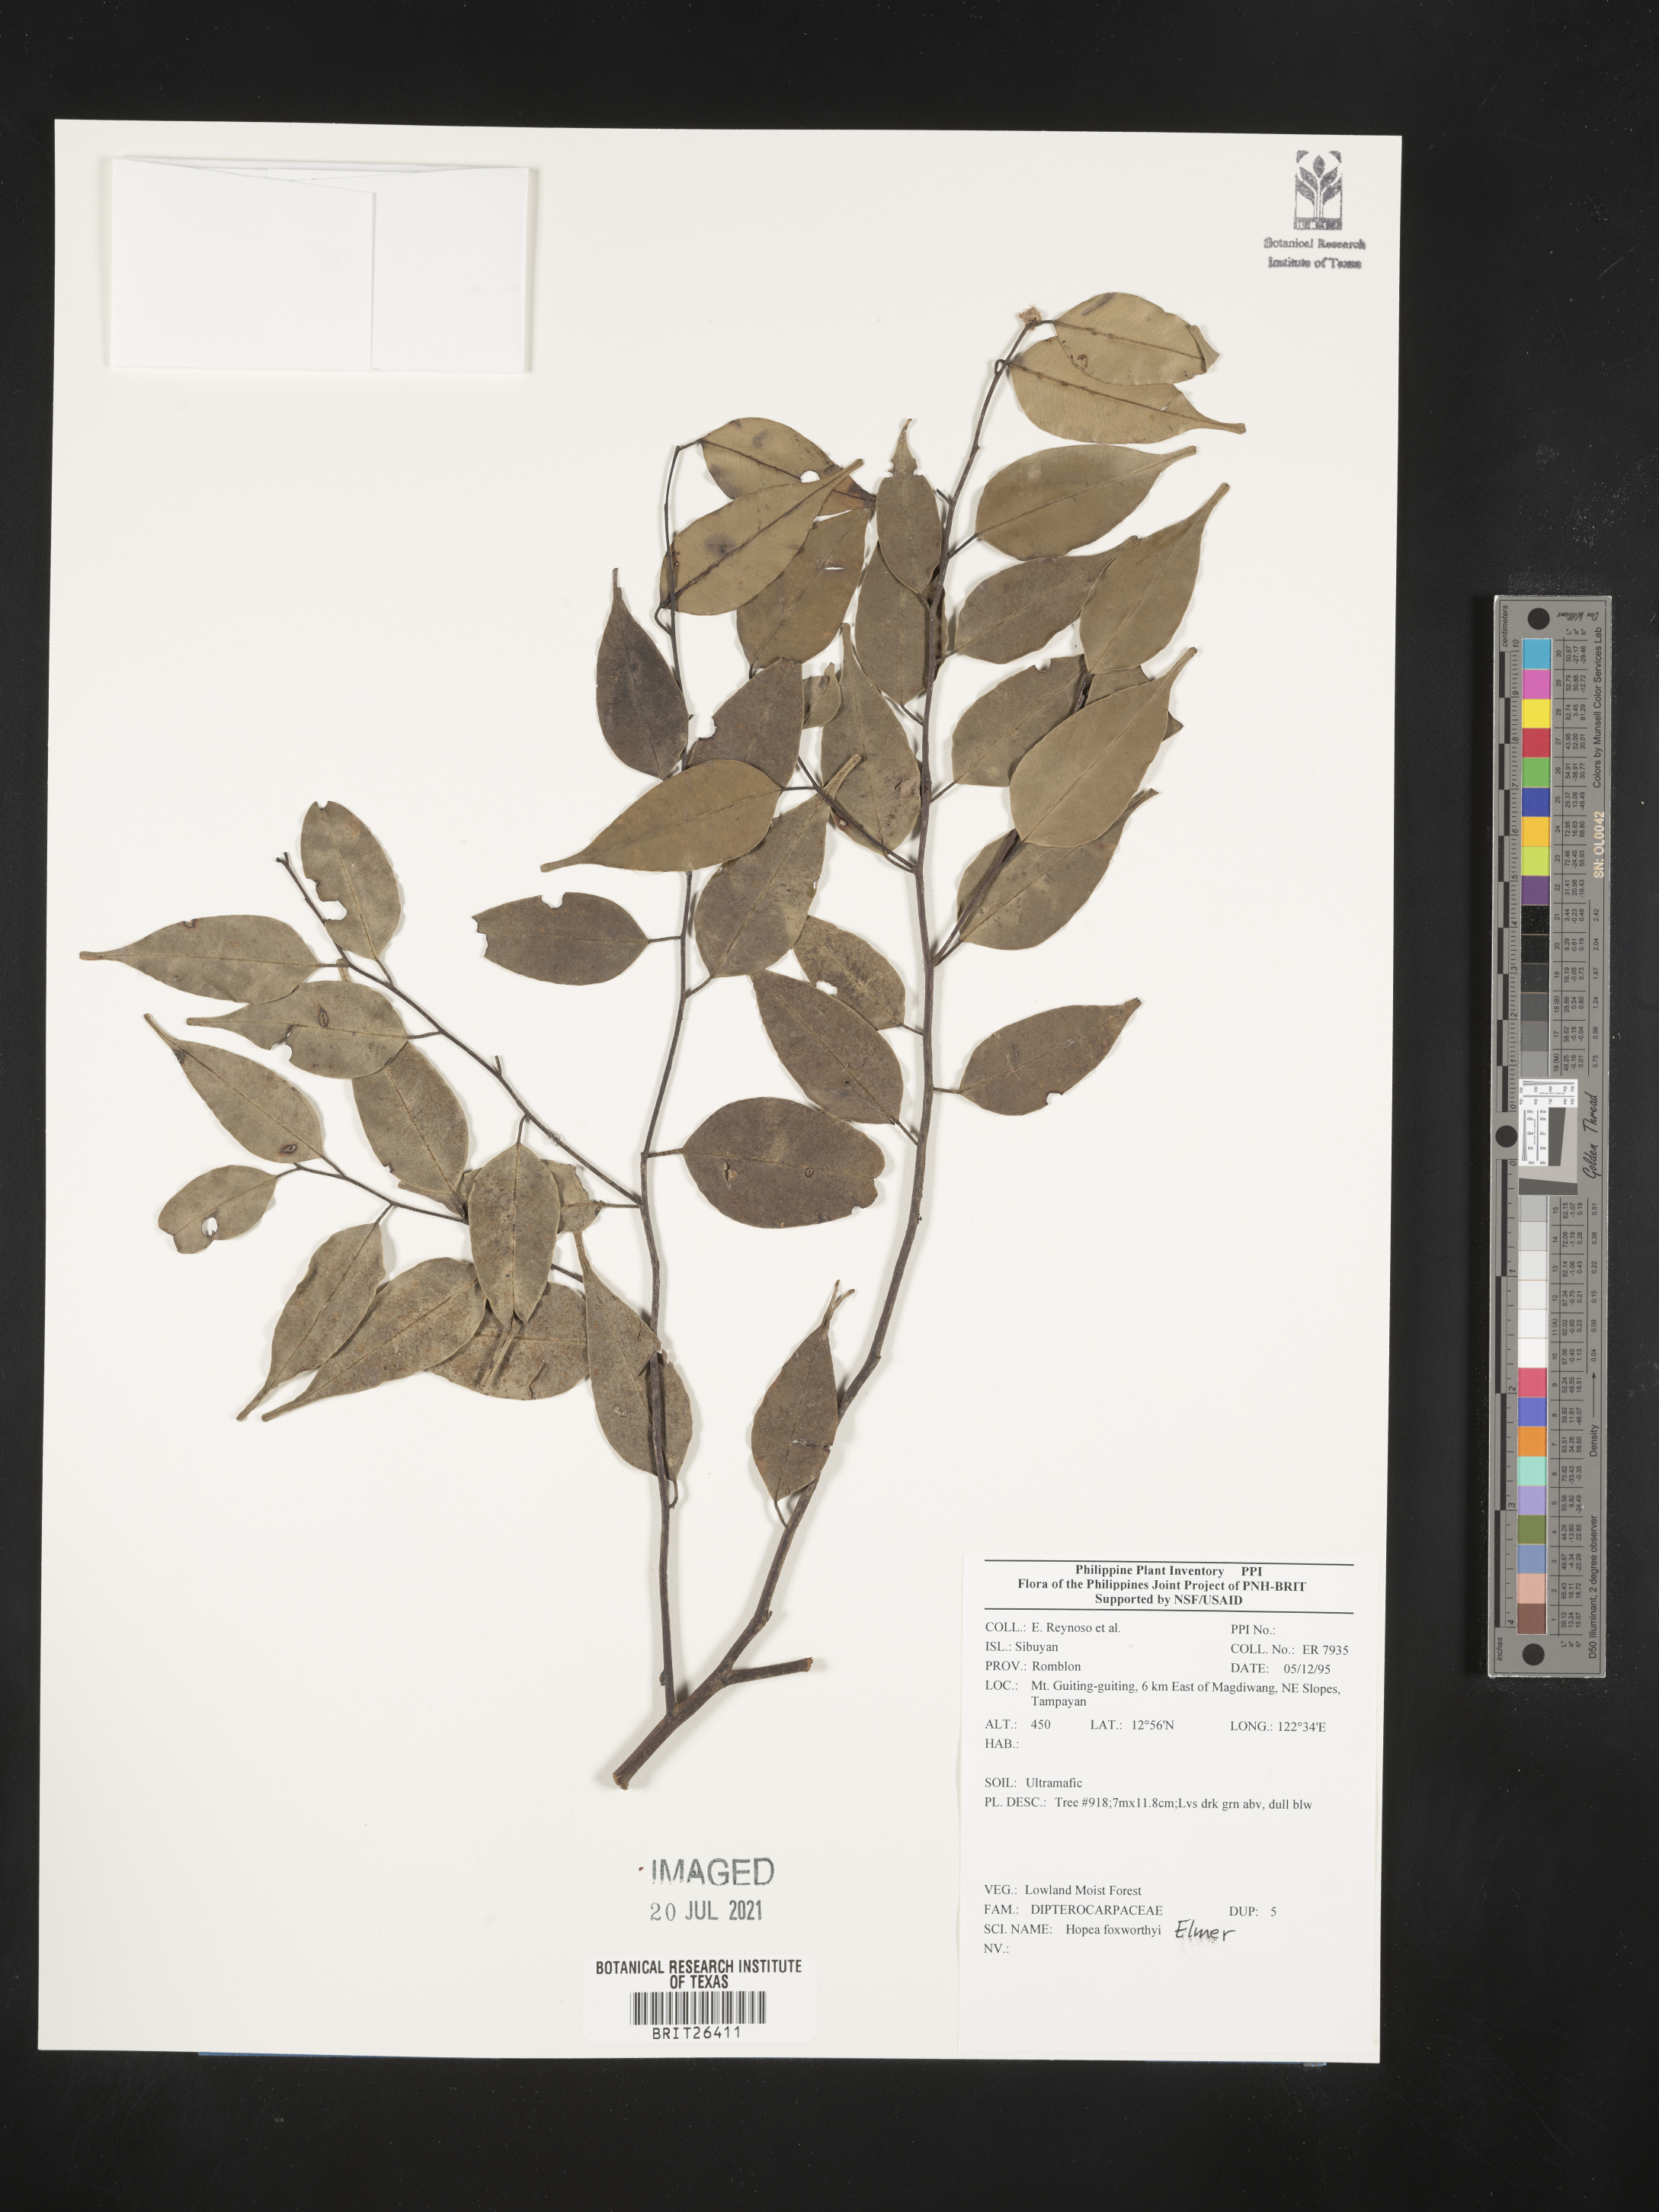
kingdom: Plantae
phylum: Tracheophyta
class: Magnoliopsida
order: Malvales
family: Dipterocarpaceae
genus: Hopea
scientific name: Hopea foxworthyi
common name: Dalingdingan
